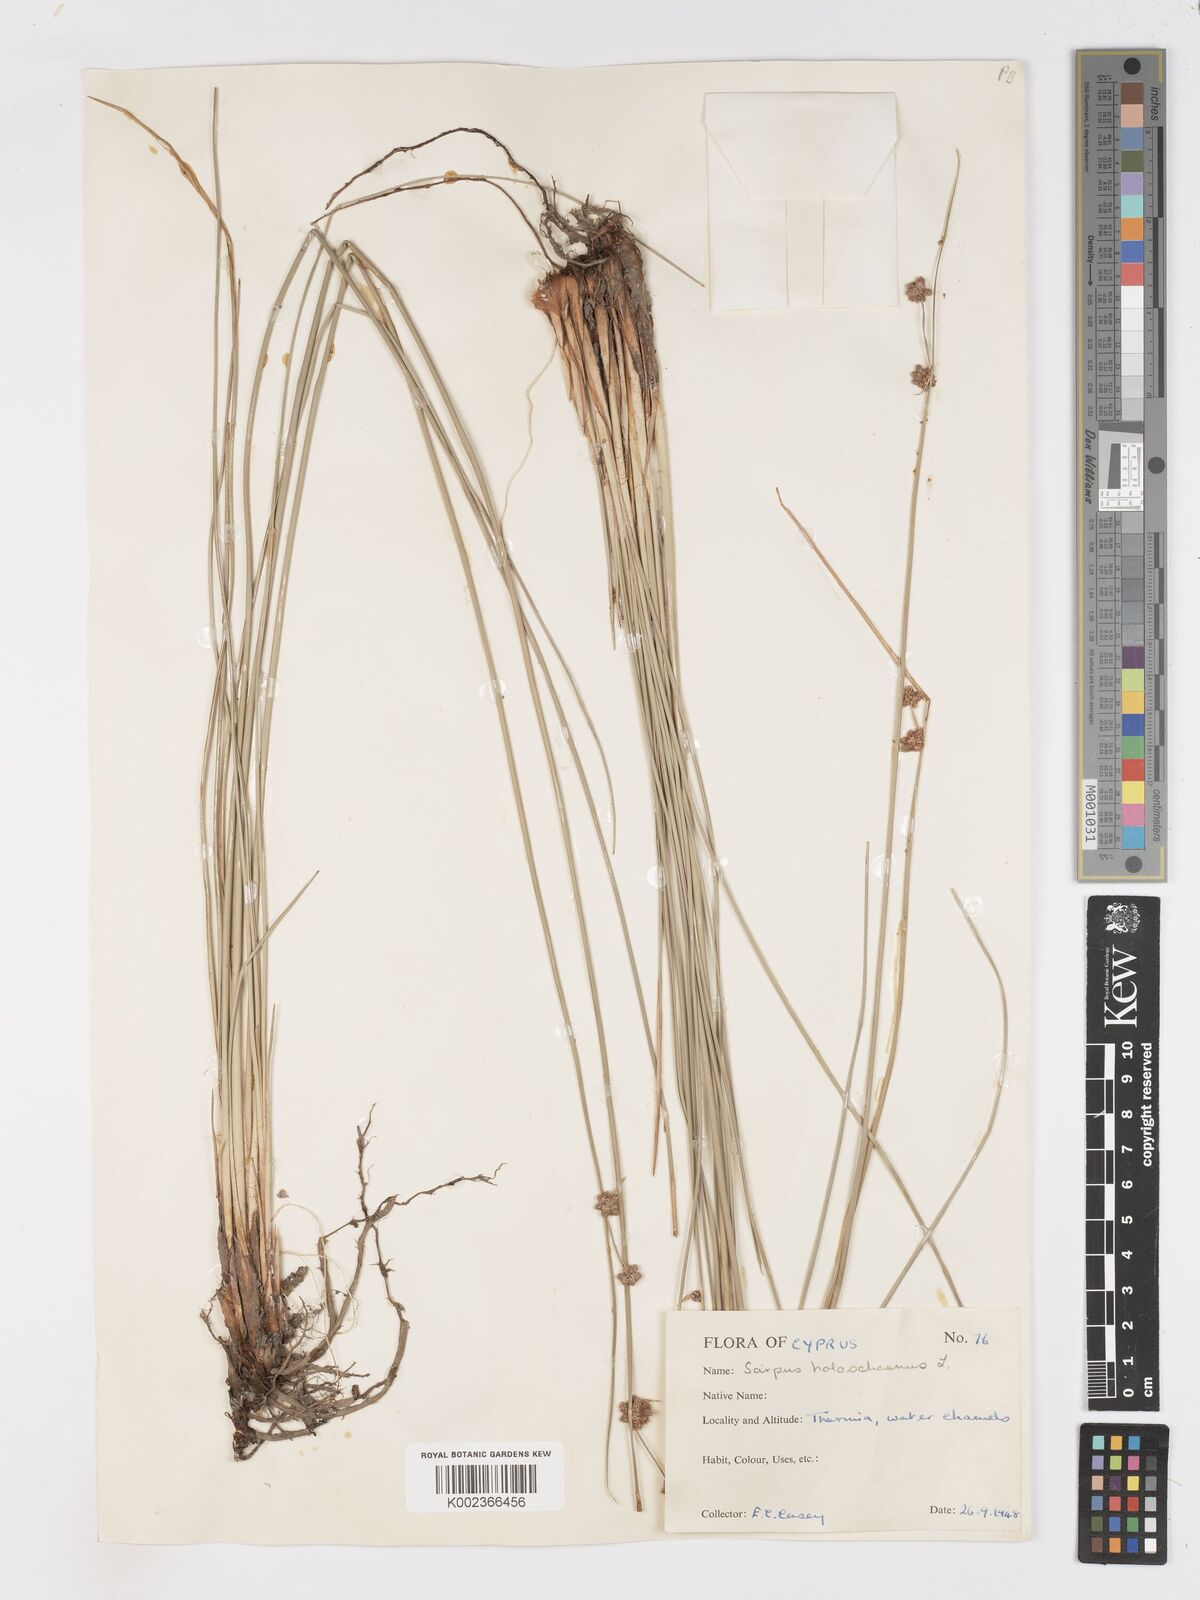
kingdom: Plantae
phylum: Tracheophyta
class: Liliopsida
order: Poales
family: Cyperaceae
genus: Scirpoides
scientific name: Scirpoides holoschoenus
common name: Round-headed club-rush
